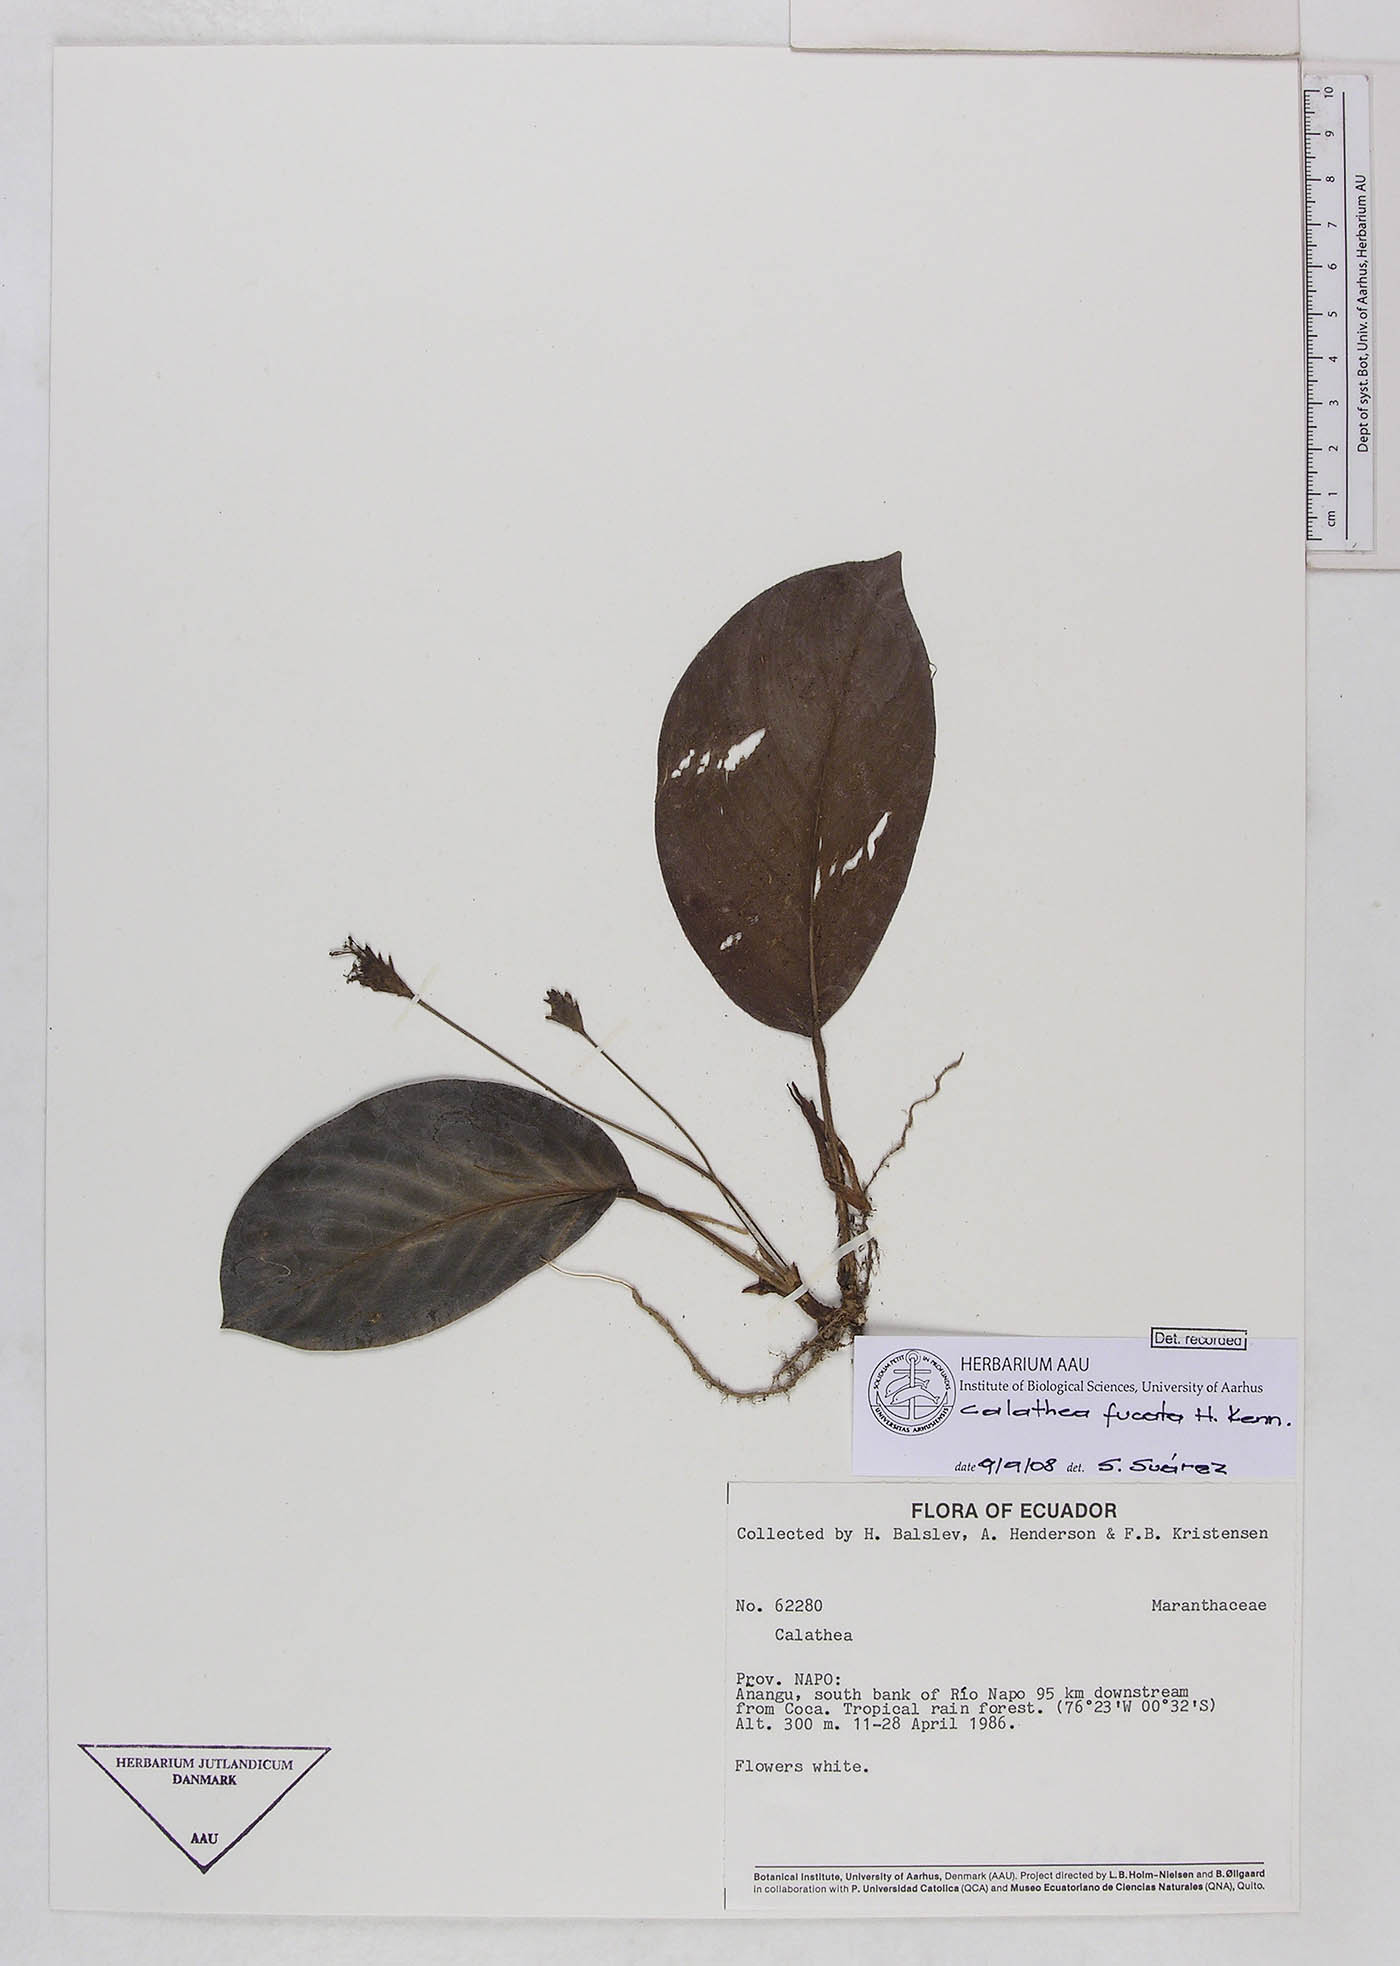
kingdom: Plantae
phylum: Tracheophyta
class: Liliopsida
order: Zingiberales
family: Marantaceae
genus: Goeppertia
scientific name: Goeppertia fucata
